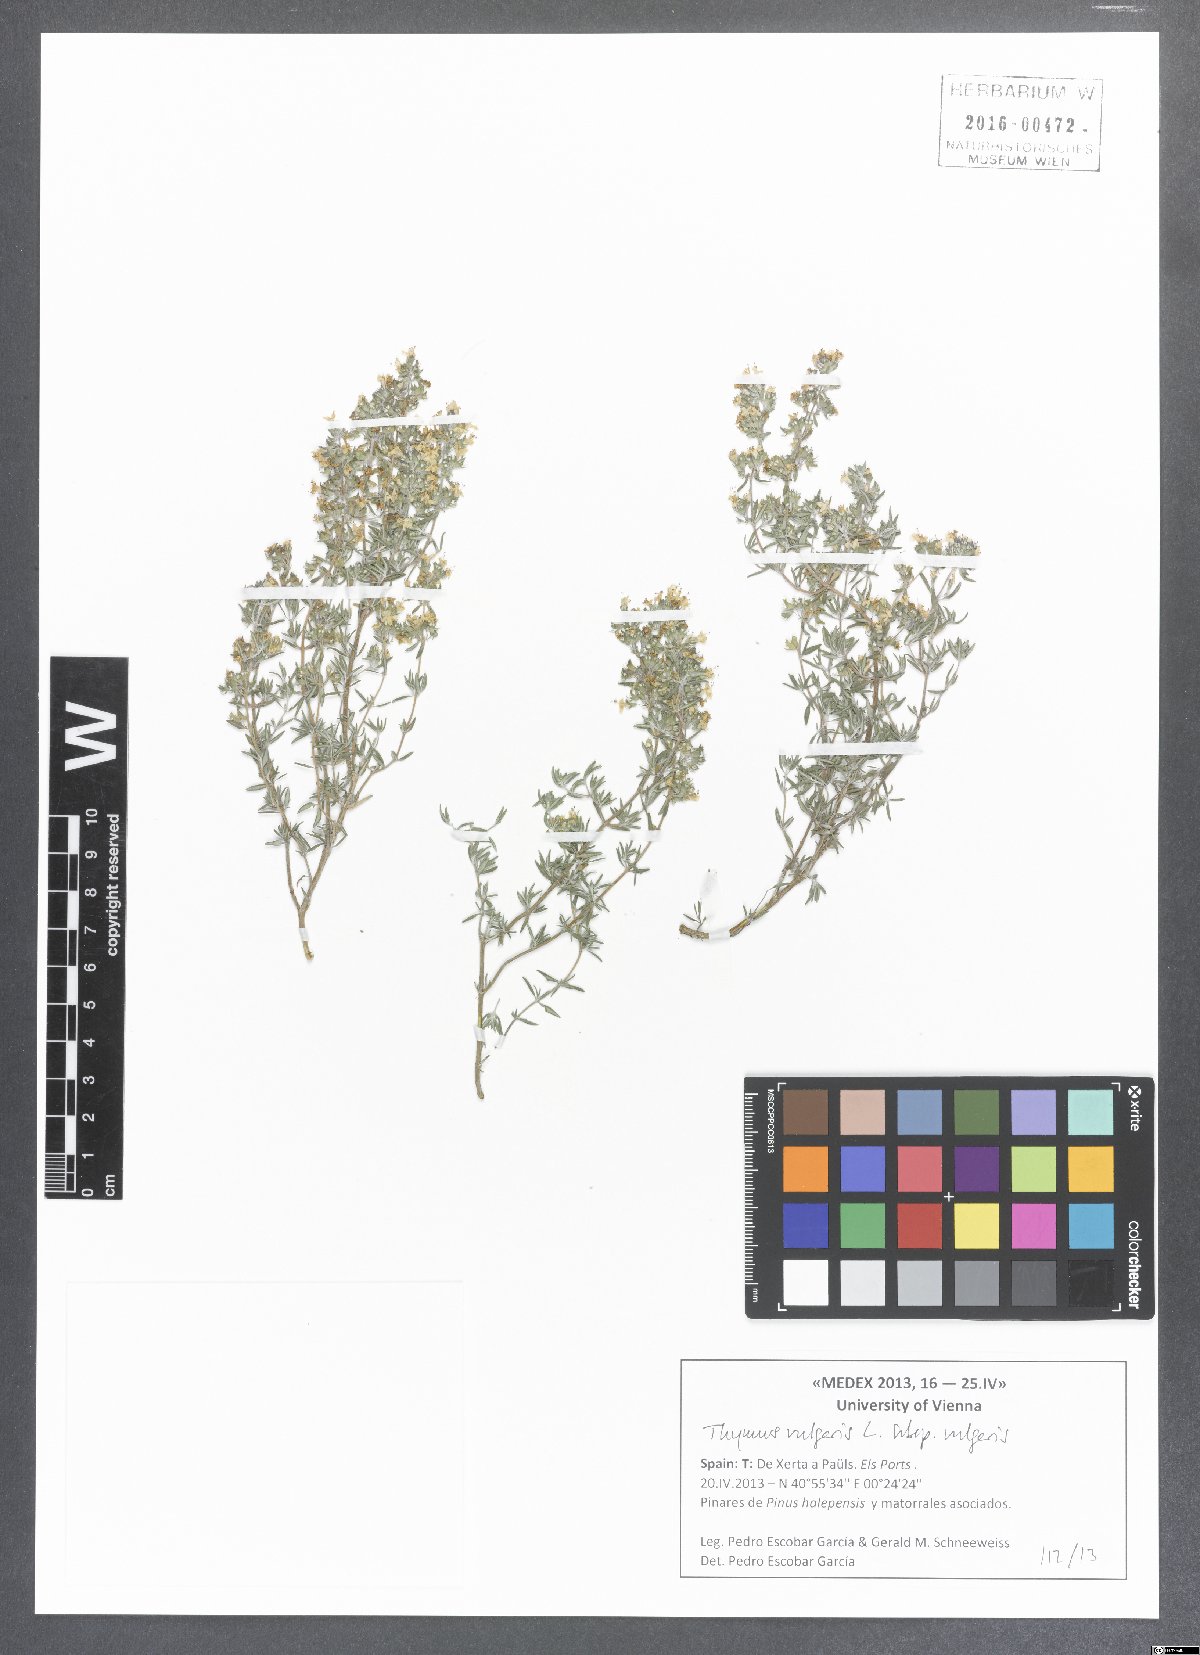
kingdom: Plantae
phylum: Tracheophyta
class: Magnoliopsida
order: Lamiales
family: Lamiaceae
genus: Thymus
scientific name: Thymus vulgaris
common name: Garden thyme
